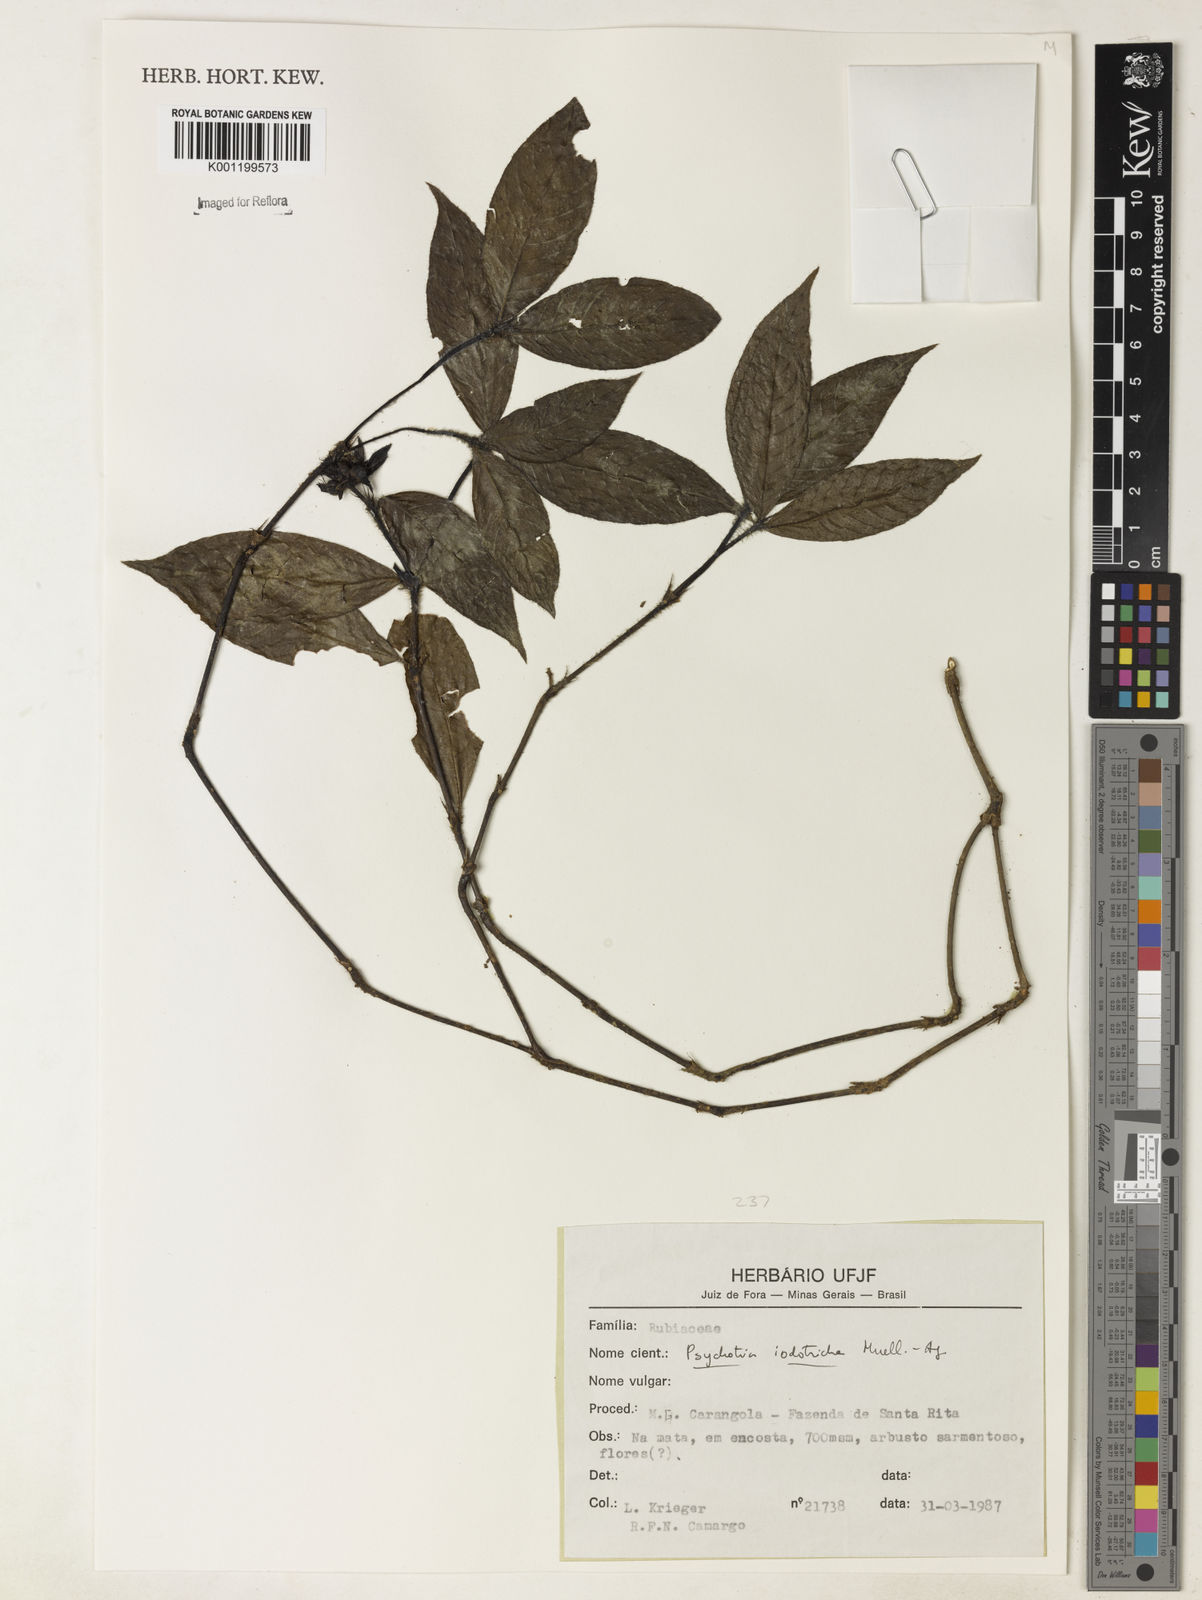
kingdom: Plantae
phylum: Tracheophyta
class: Magnoliopsida
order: Gentianales
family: Rubiaceae
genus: Psychotria
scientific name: Psychotria
